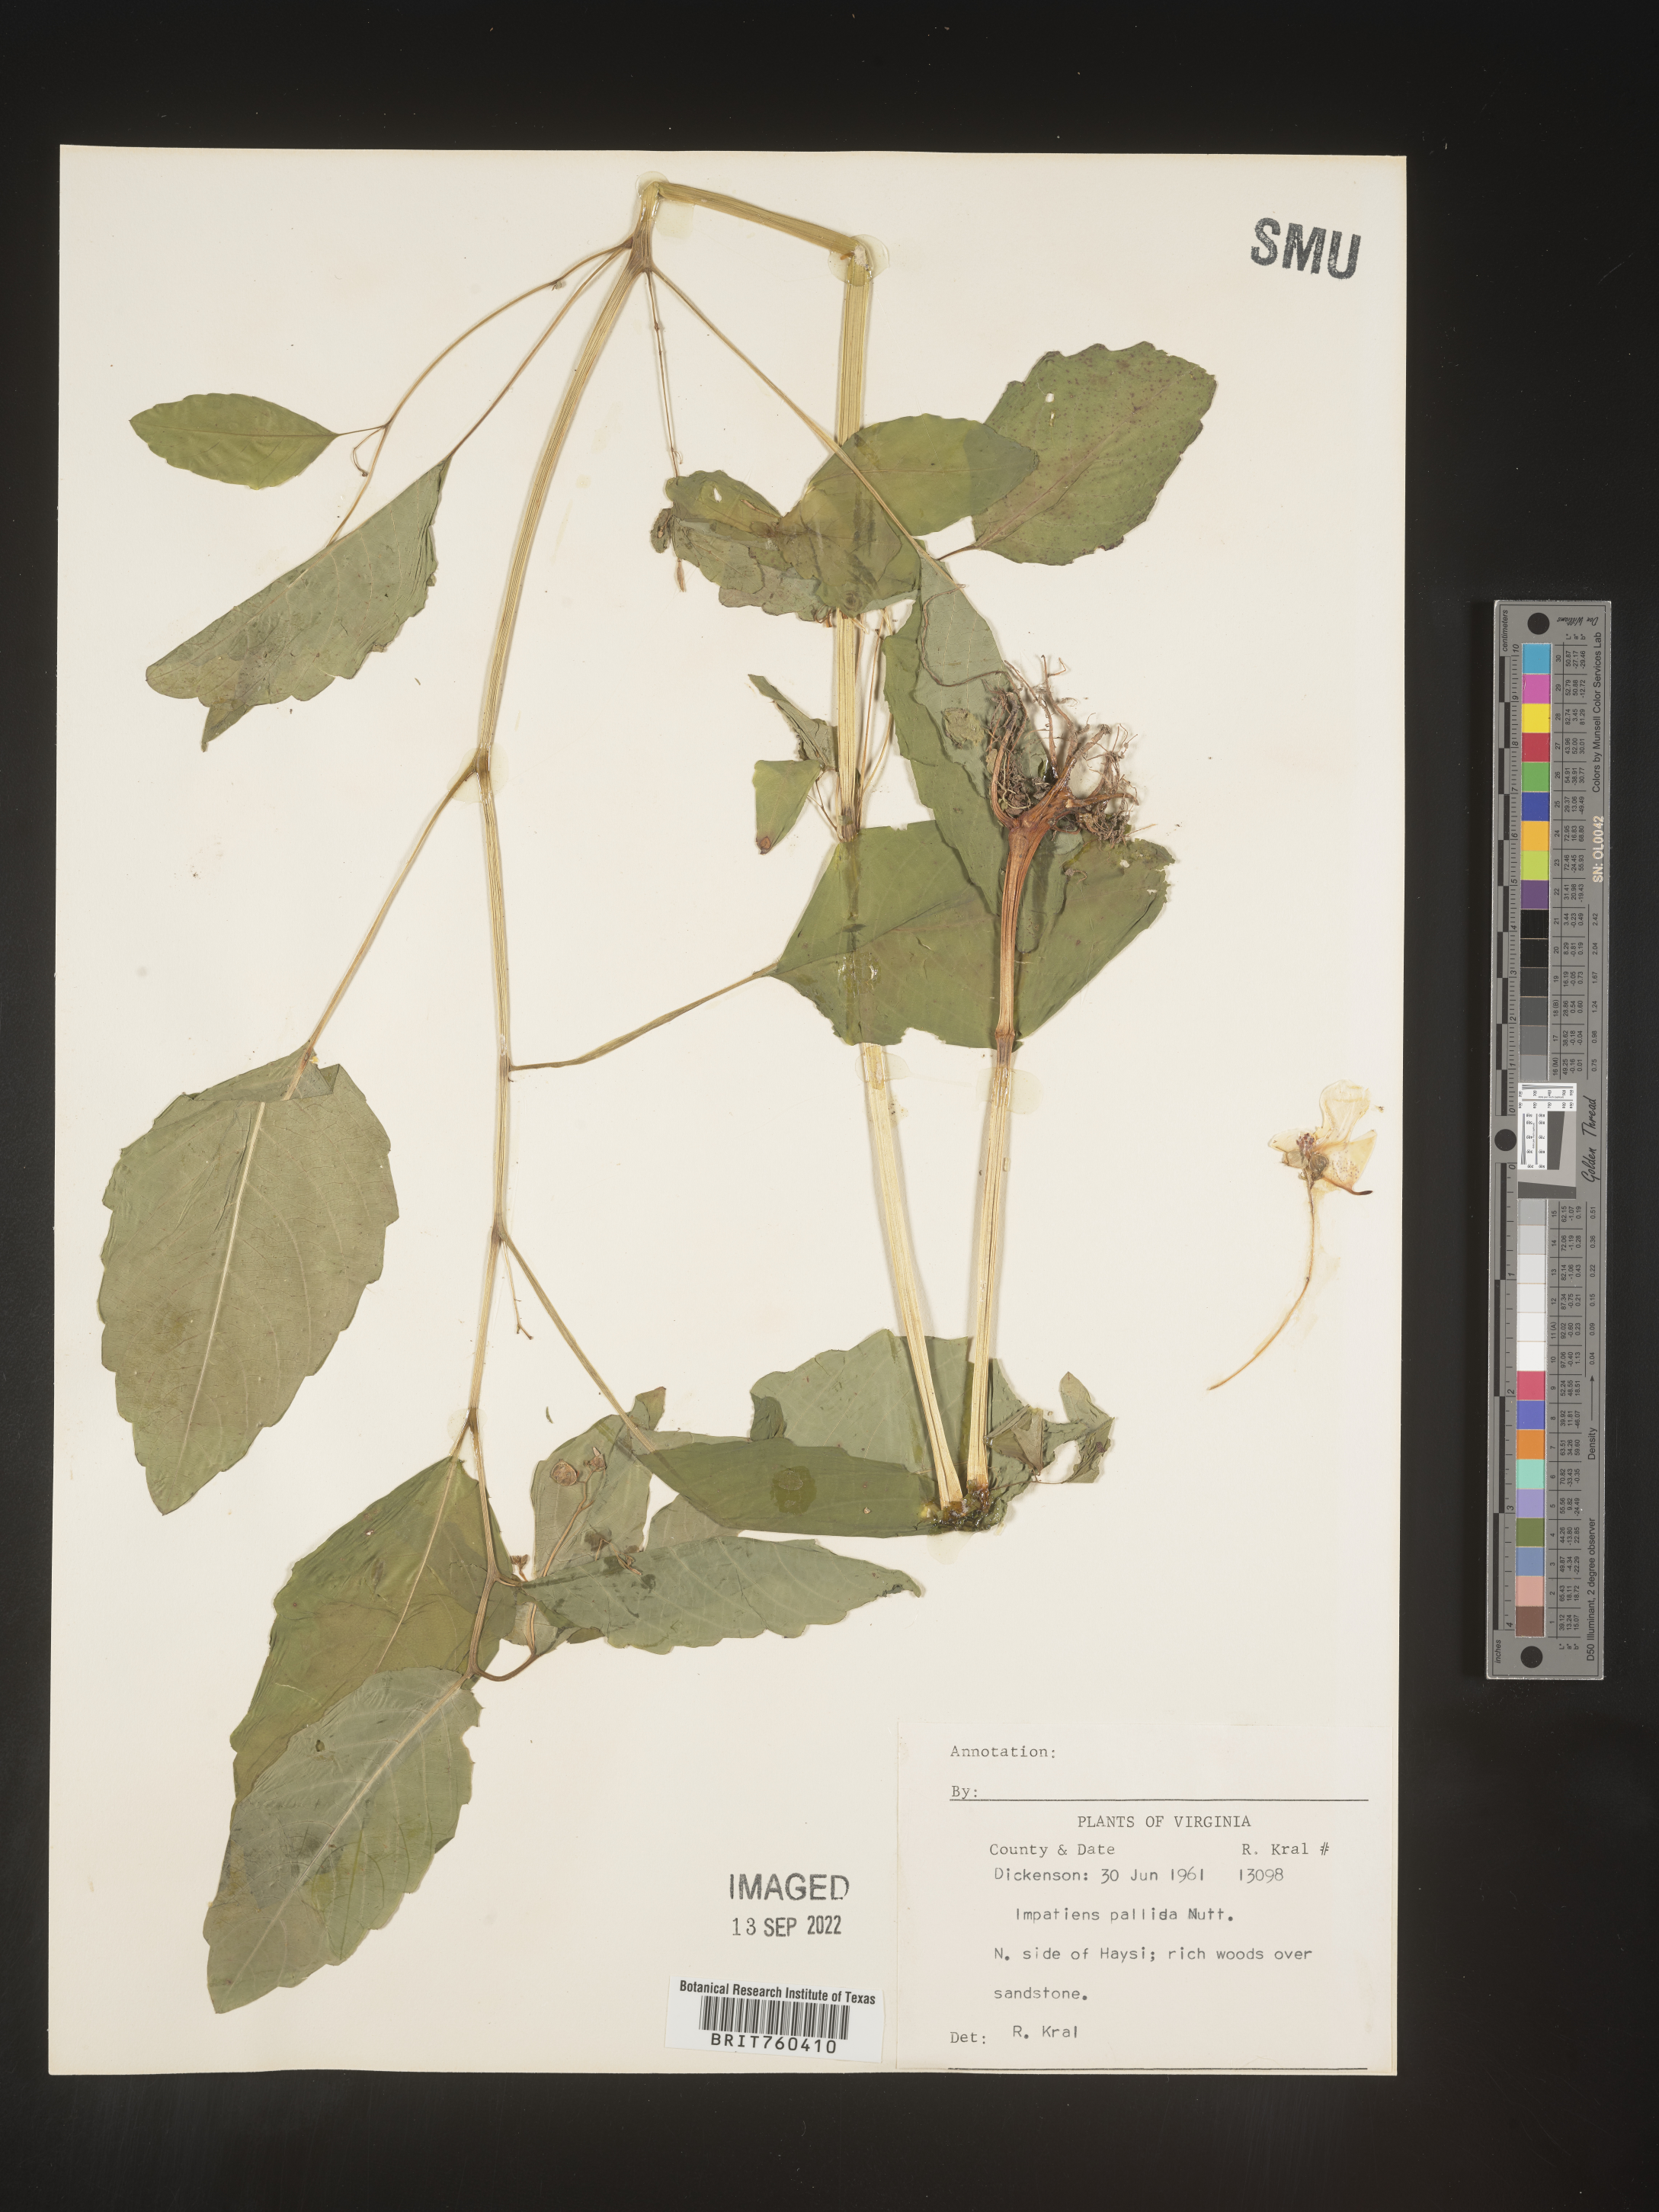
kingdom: Plantae
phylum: Tracheophyta
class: Magnoliopsida
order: Ericales
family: Balsaminaceae
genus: Impatiens
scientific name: Impatiens pallida
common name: Pale snapweed
